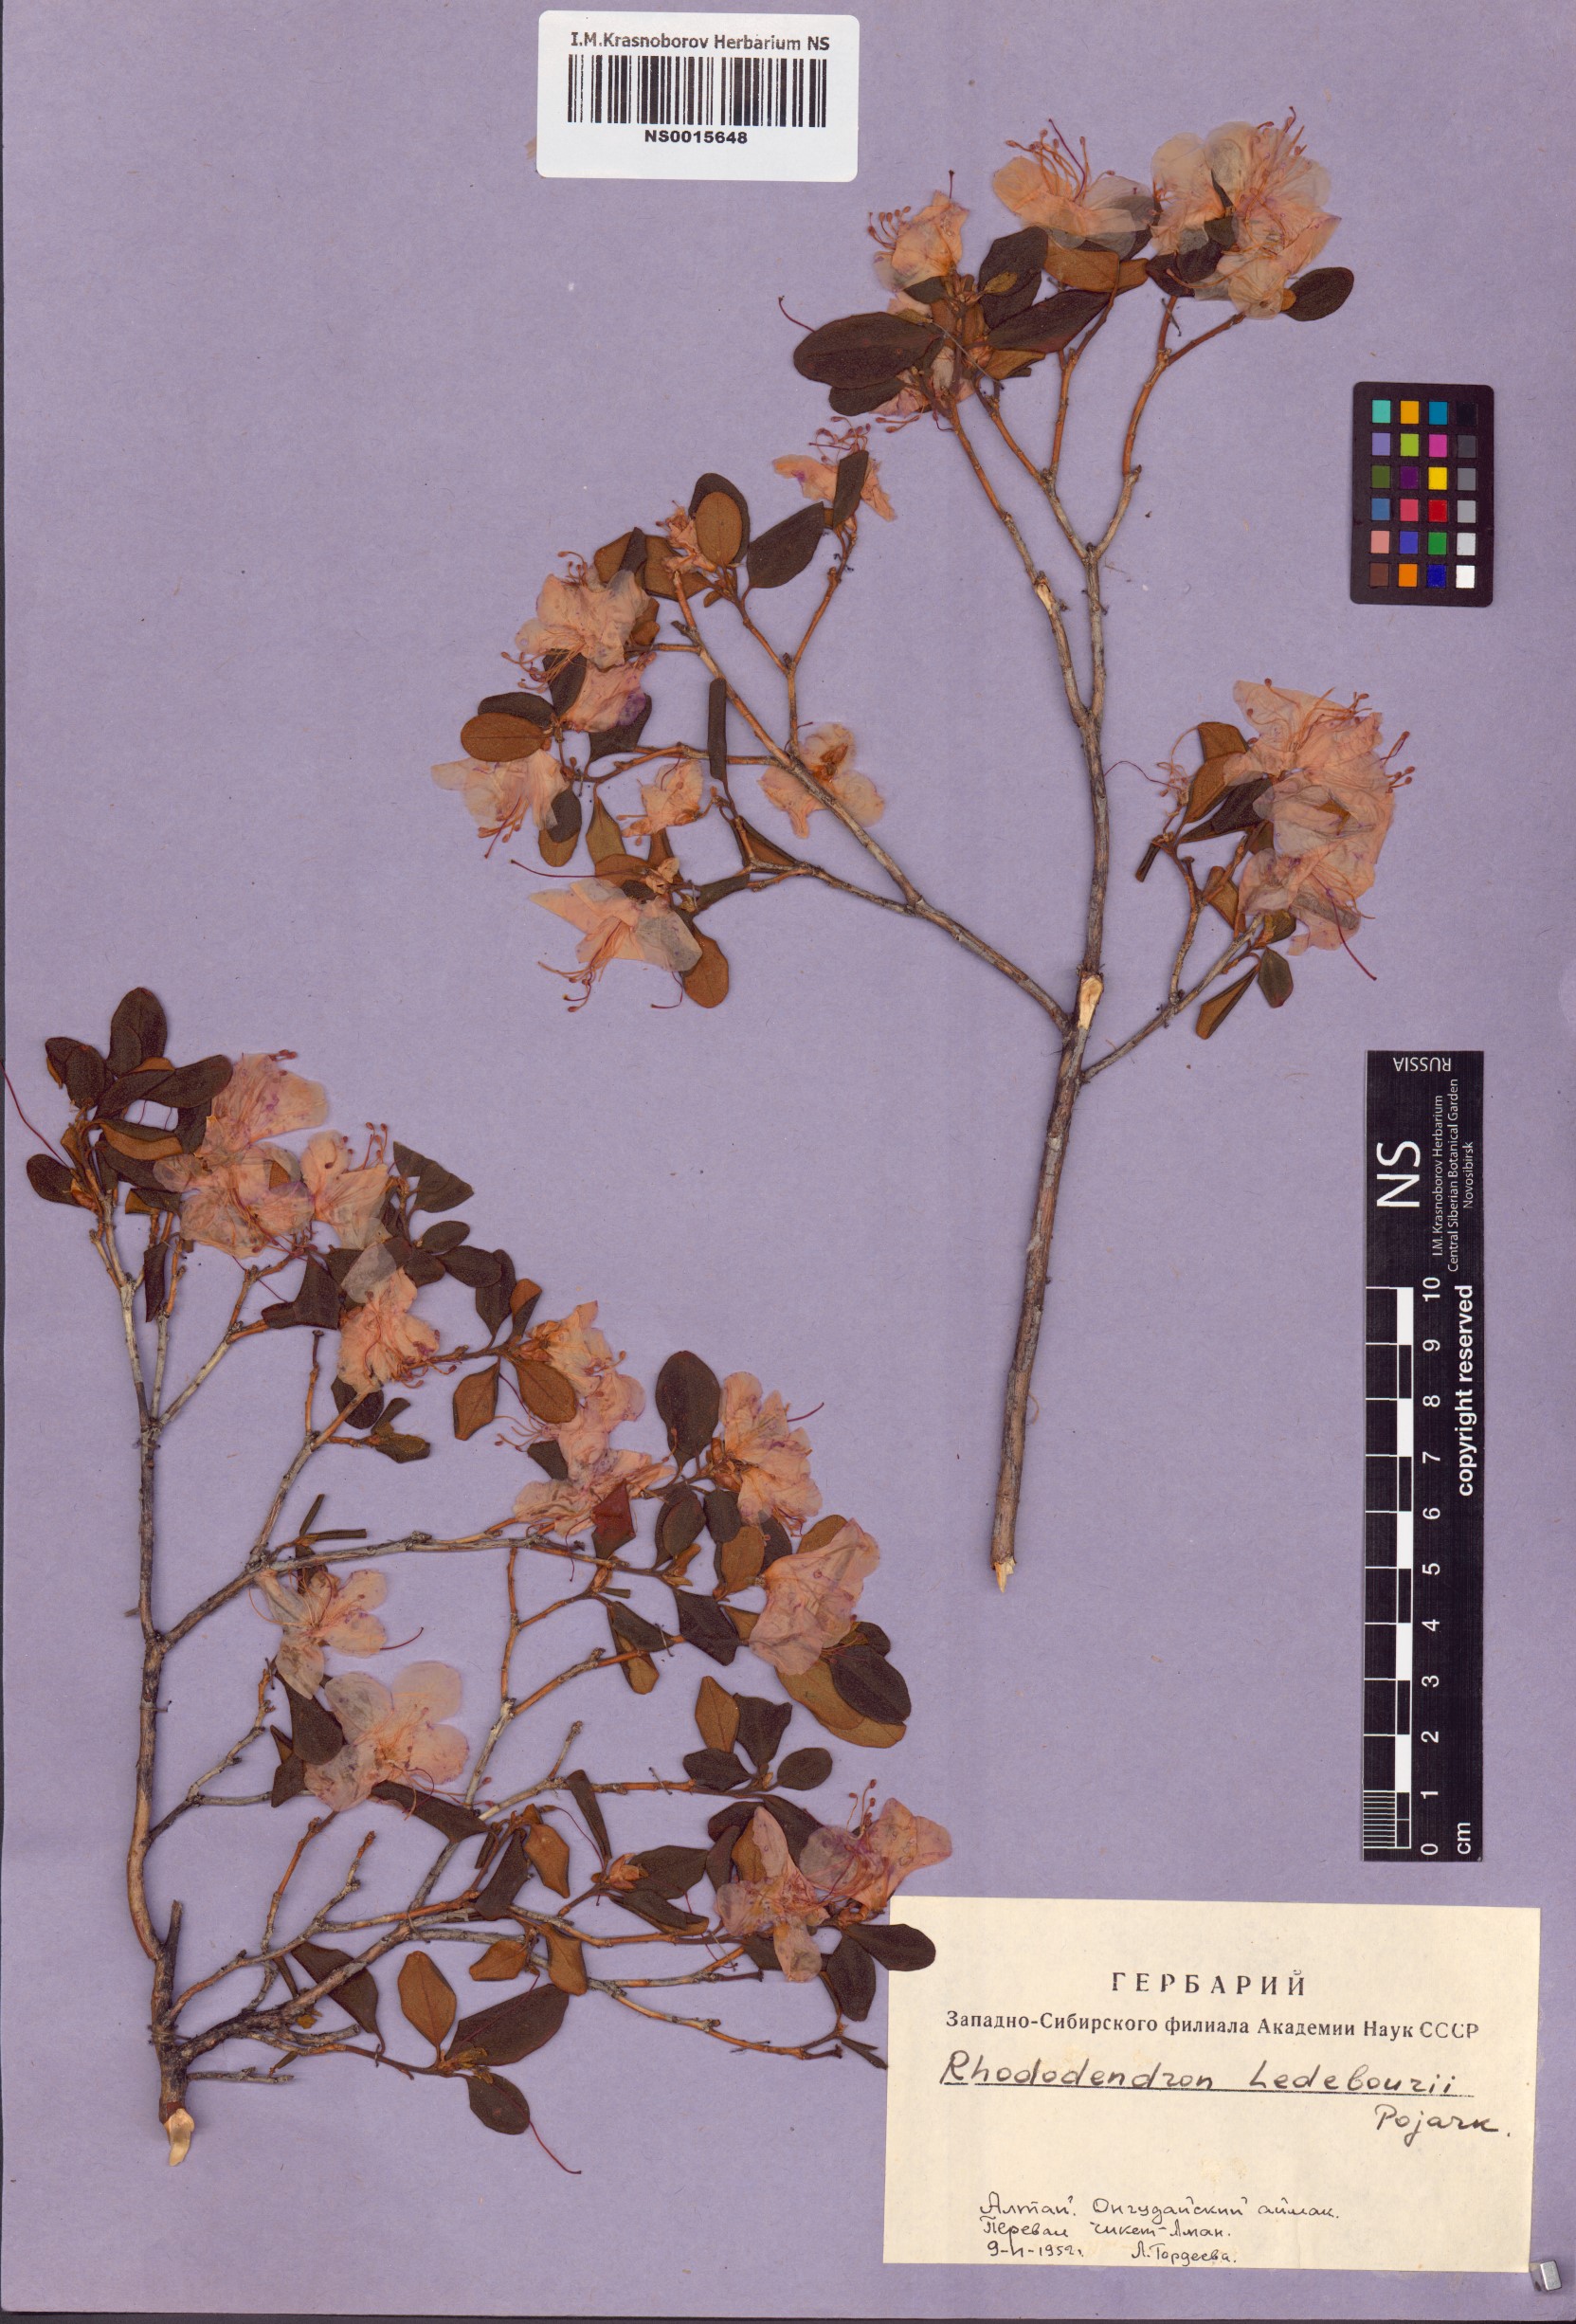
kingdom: Plantae
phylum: Tracheophyta
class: Magnoliopsida
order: Ericales
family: Ericaceae
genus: Rhododendron
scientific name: Rhododendron dauricum
